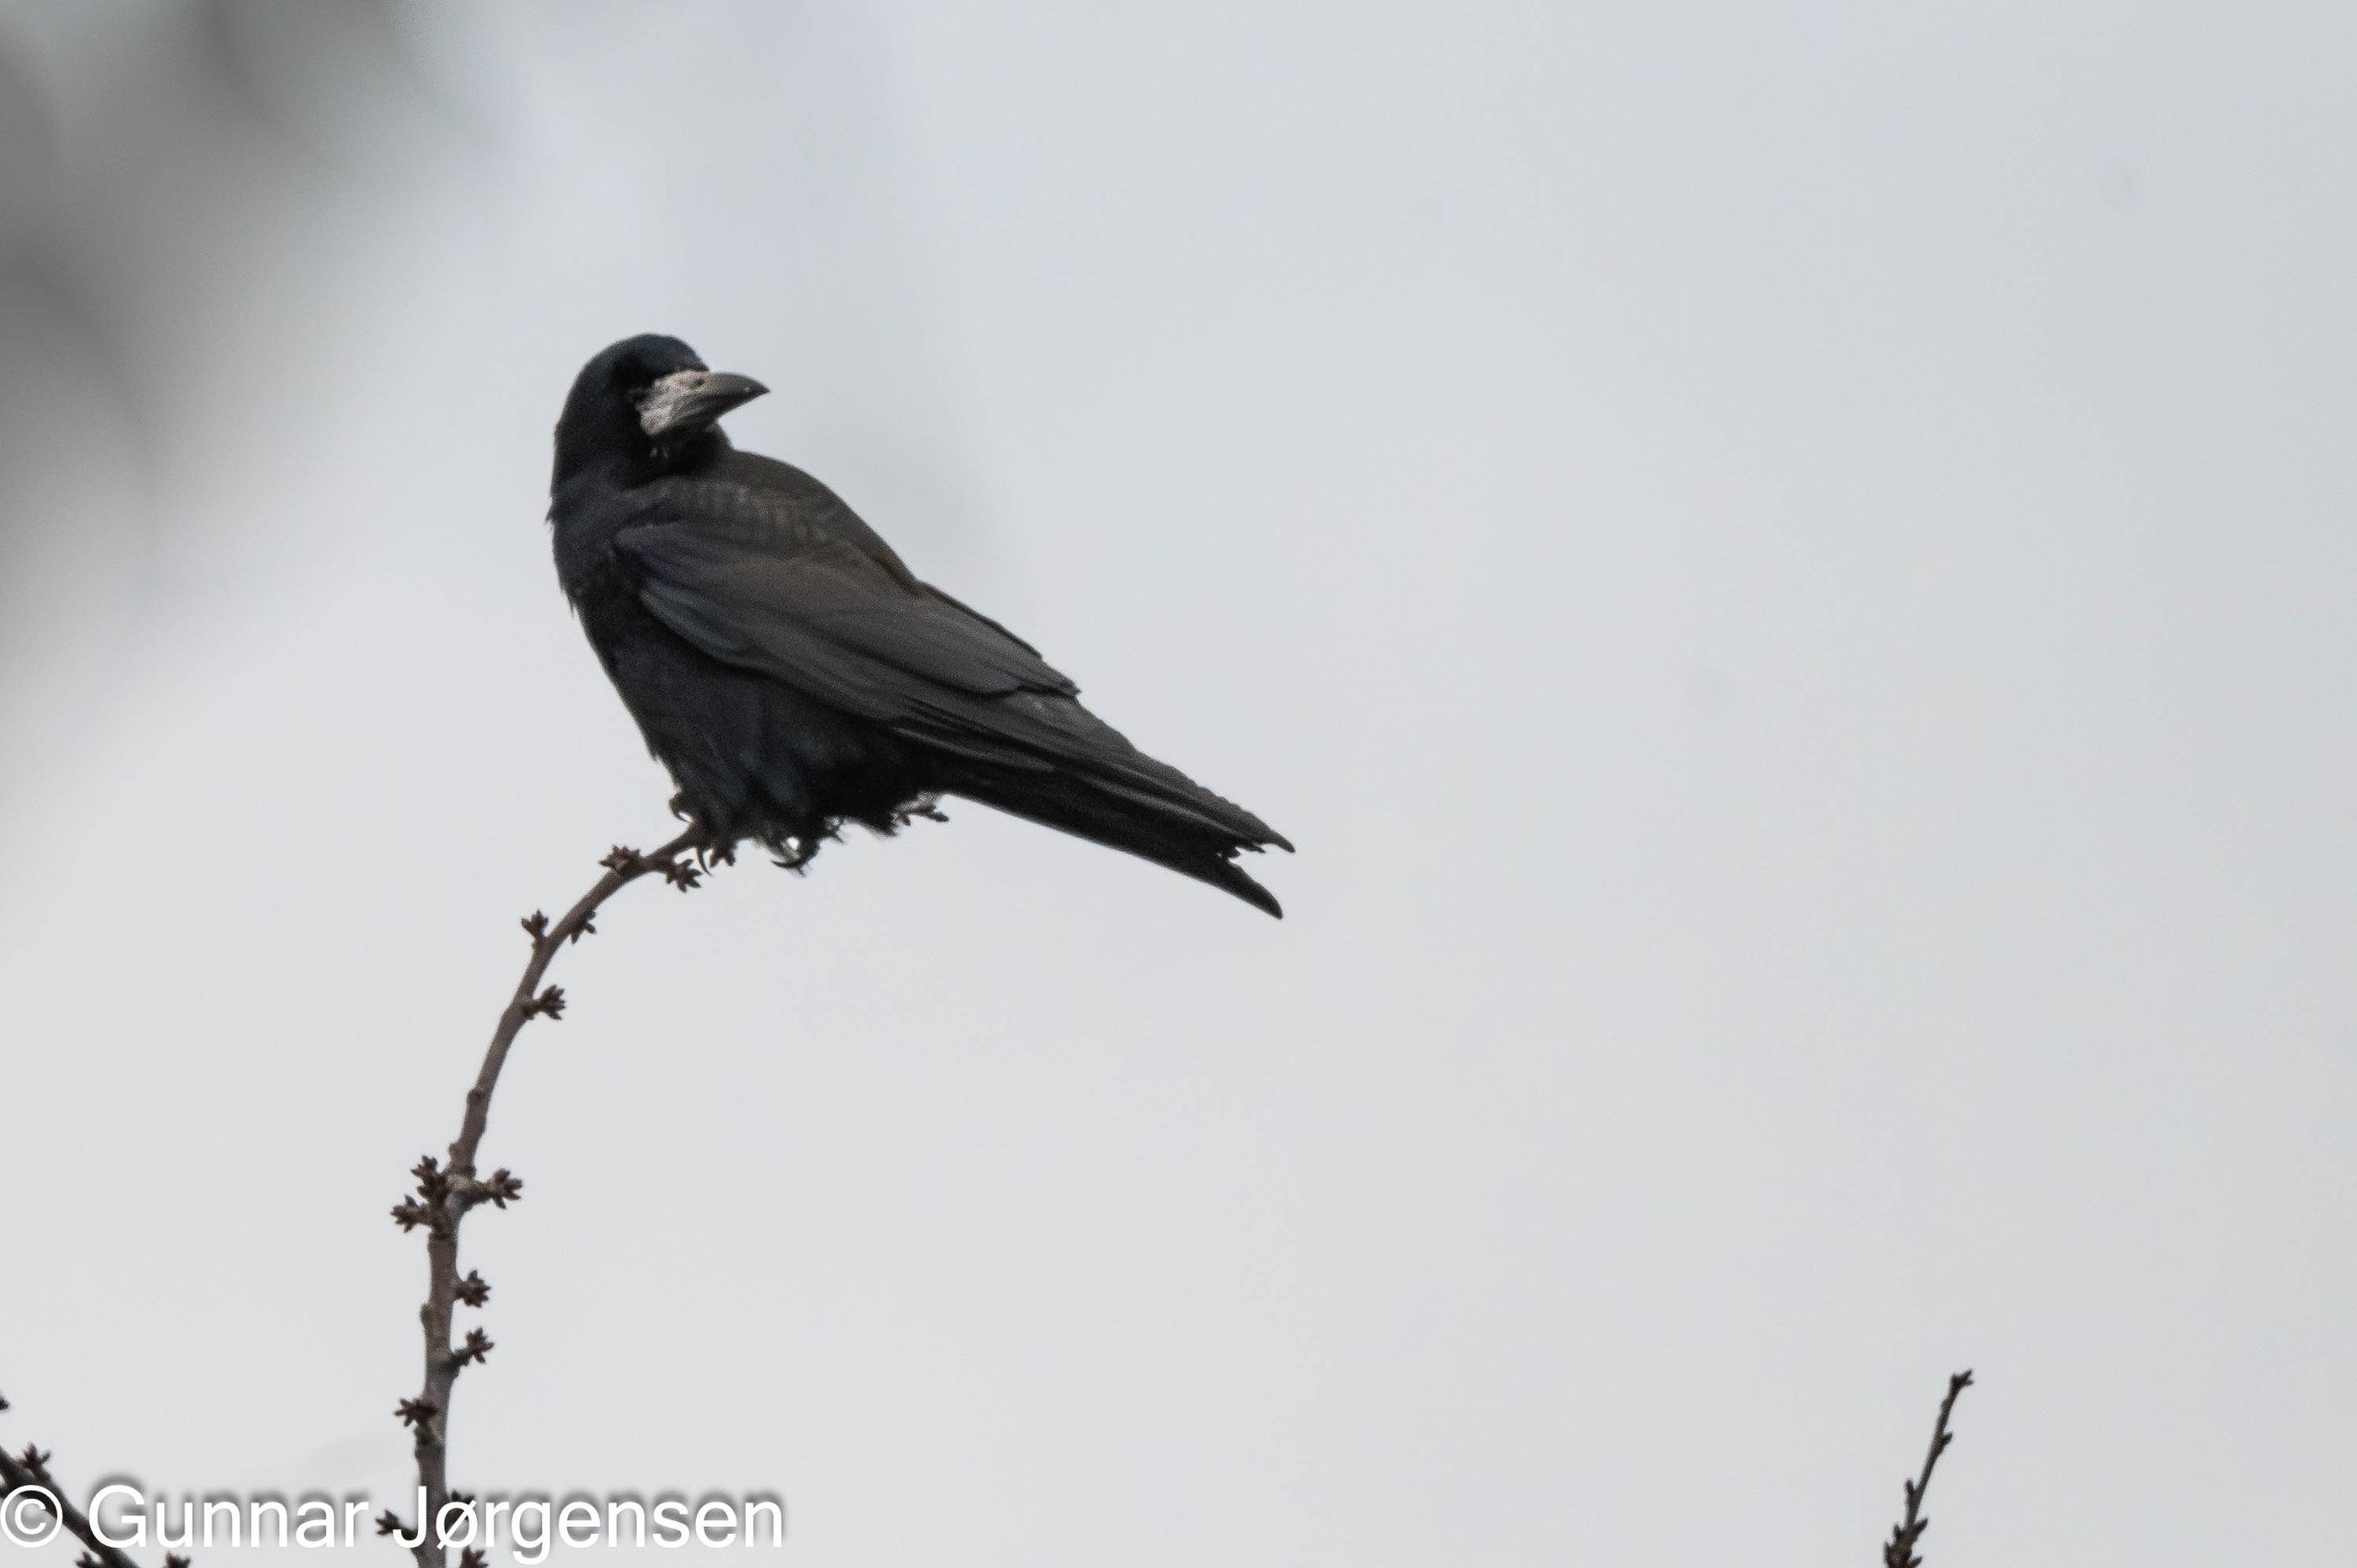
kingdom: Animalia
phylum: Chordata
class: Aves
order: Passeriformes
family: Corvidae
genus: Corvus
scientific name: Corvus frugilegus
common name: Råge
